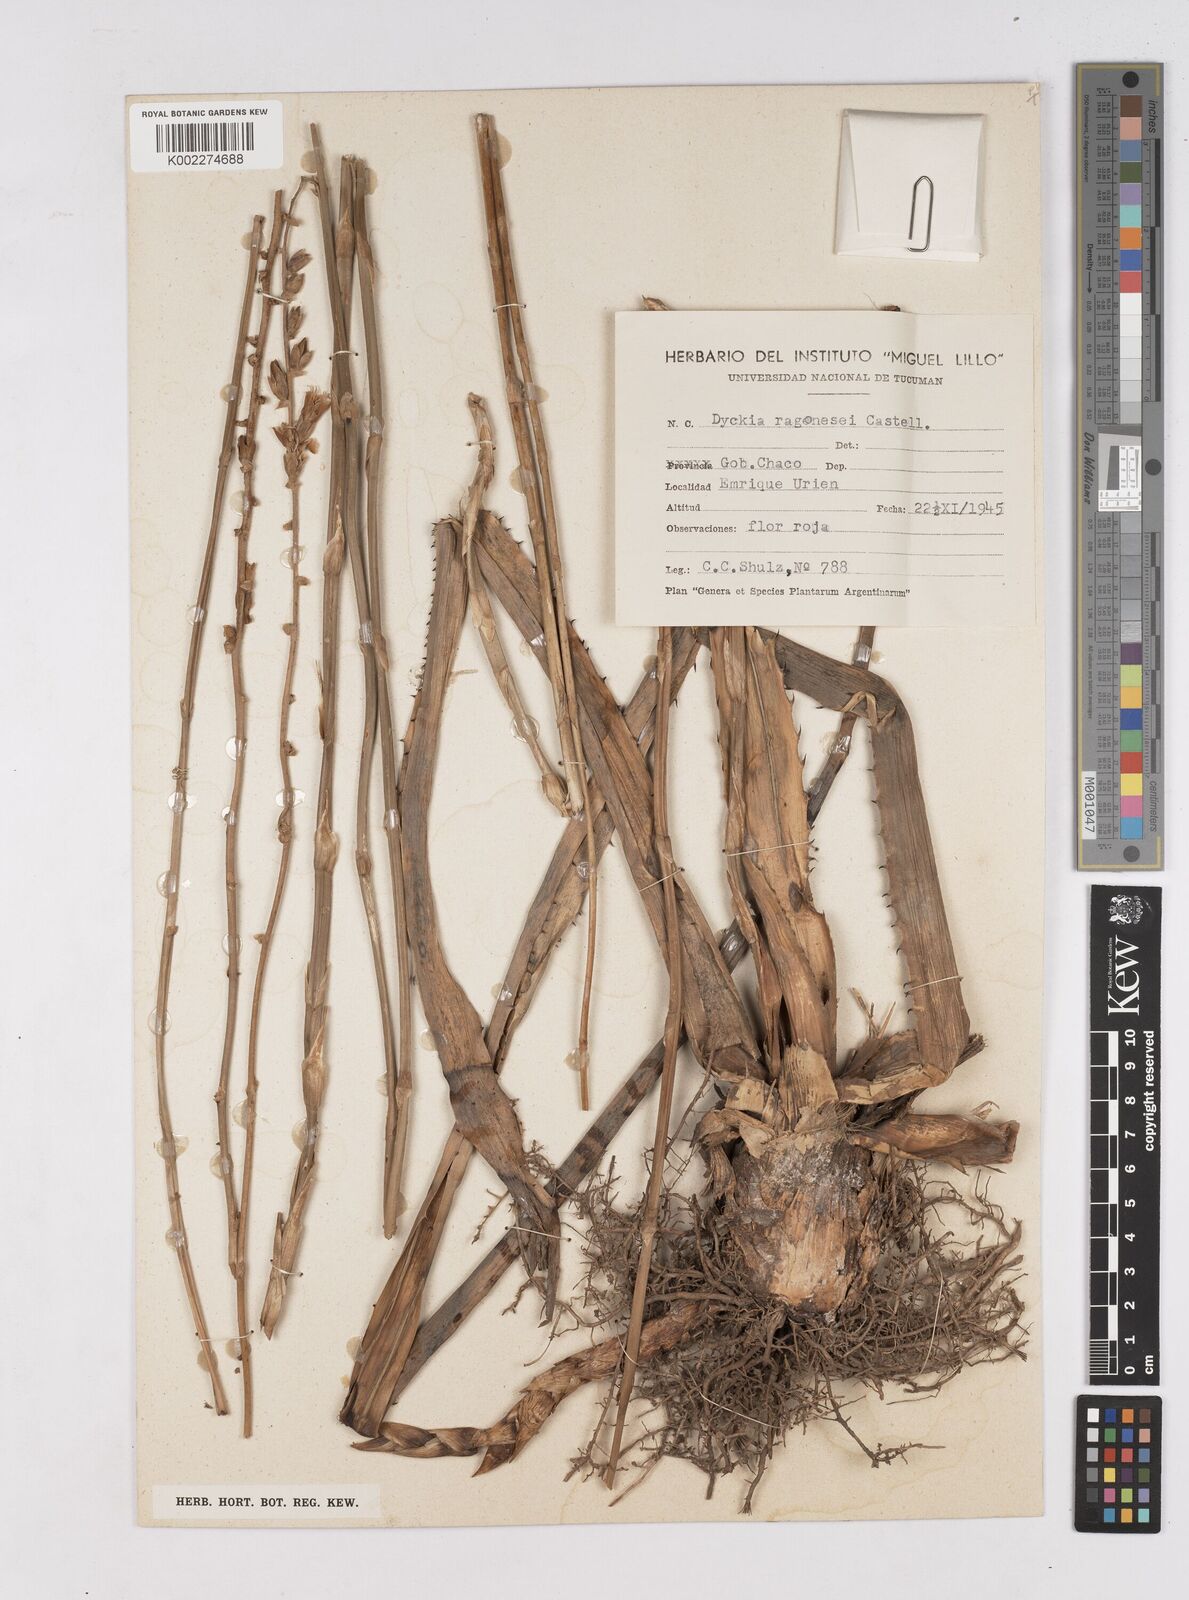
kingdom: Plantae
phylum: Tracheophyta
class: Liliopsida
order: Poales
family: Bromeliaceae
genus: Dyckia
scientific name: Dyckia ragonesei
